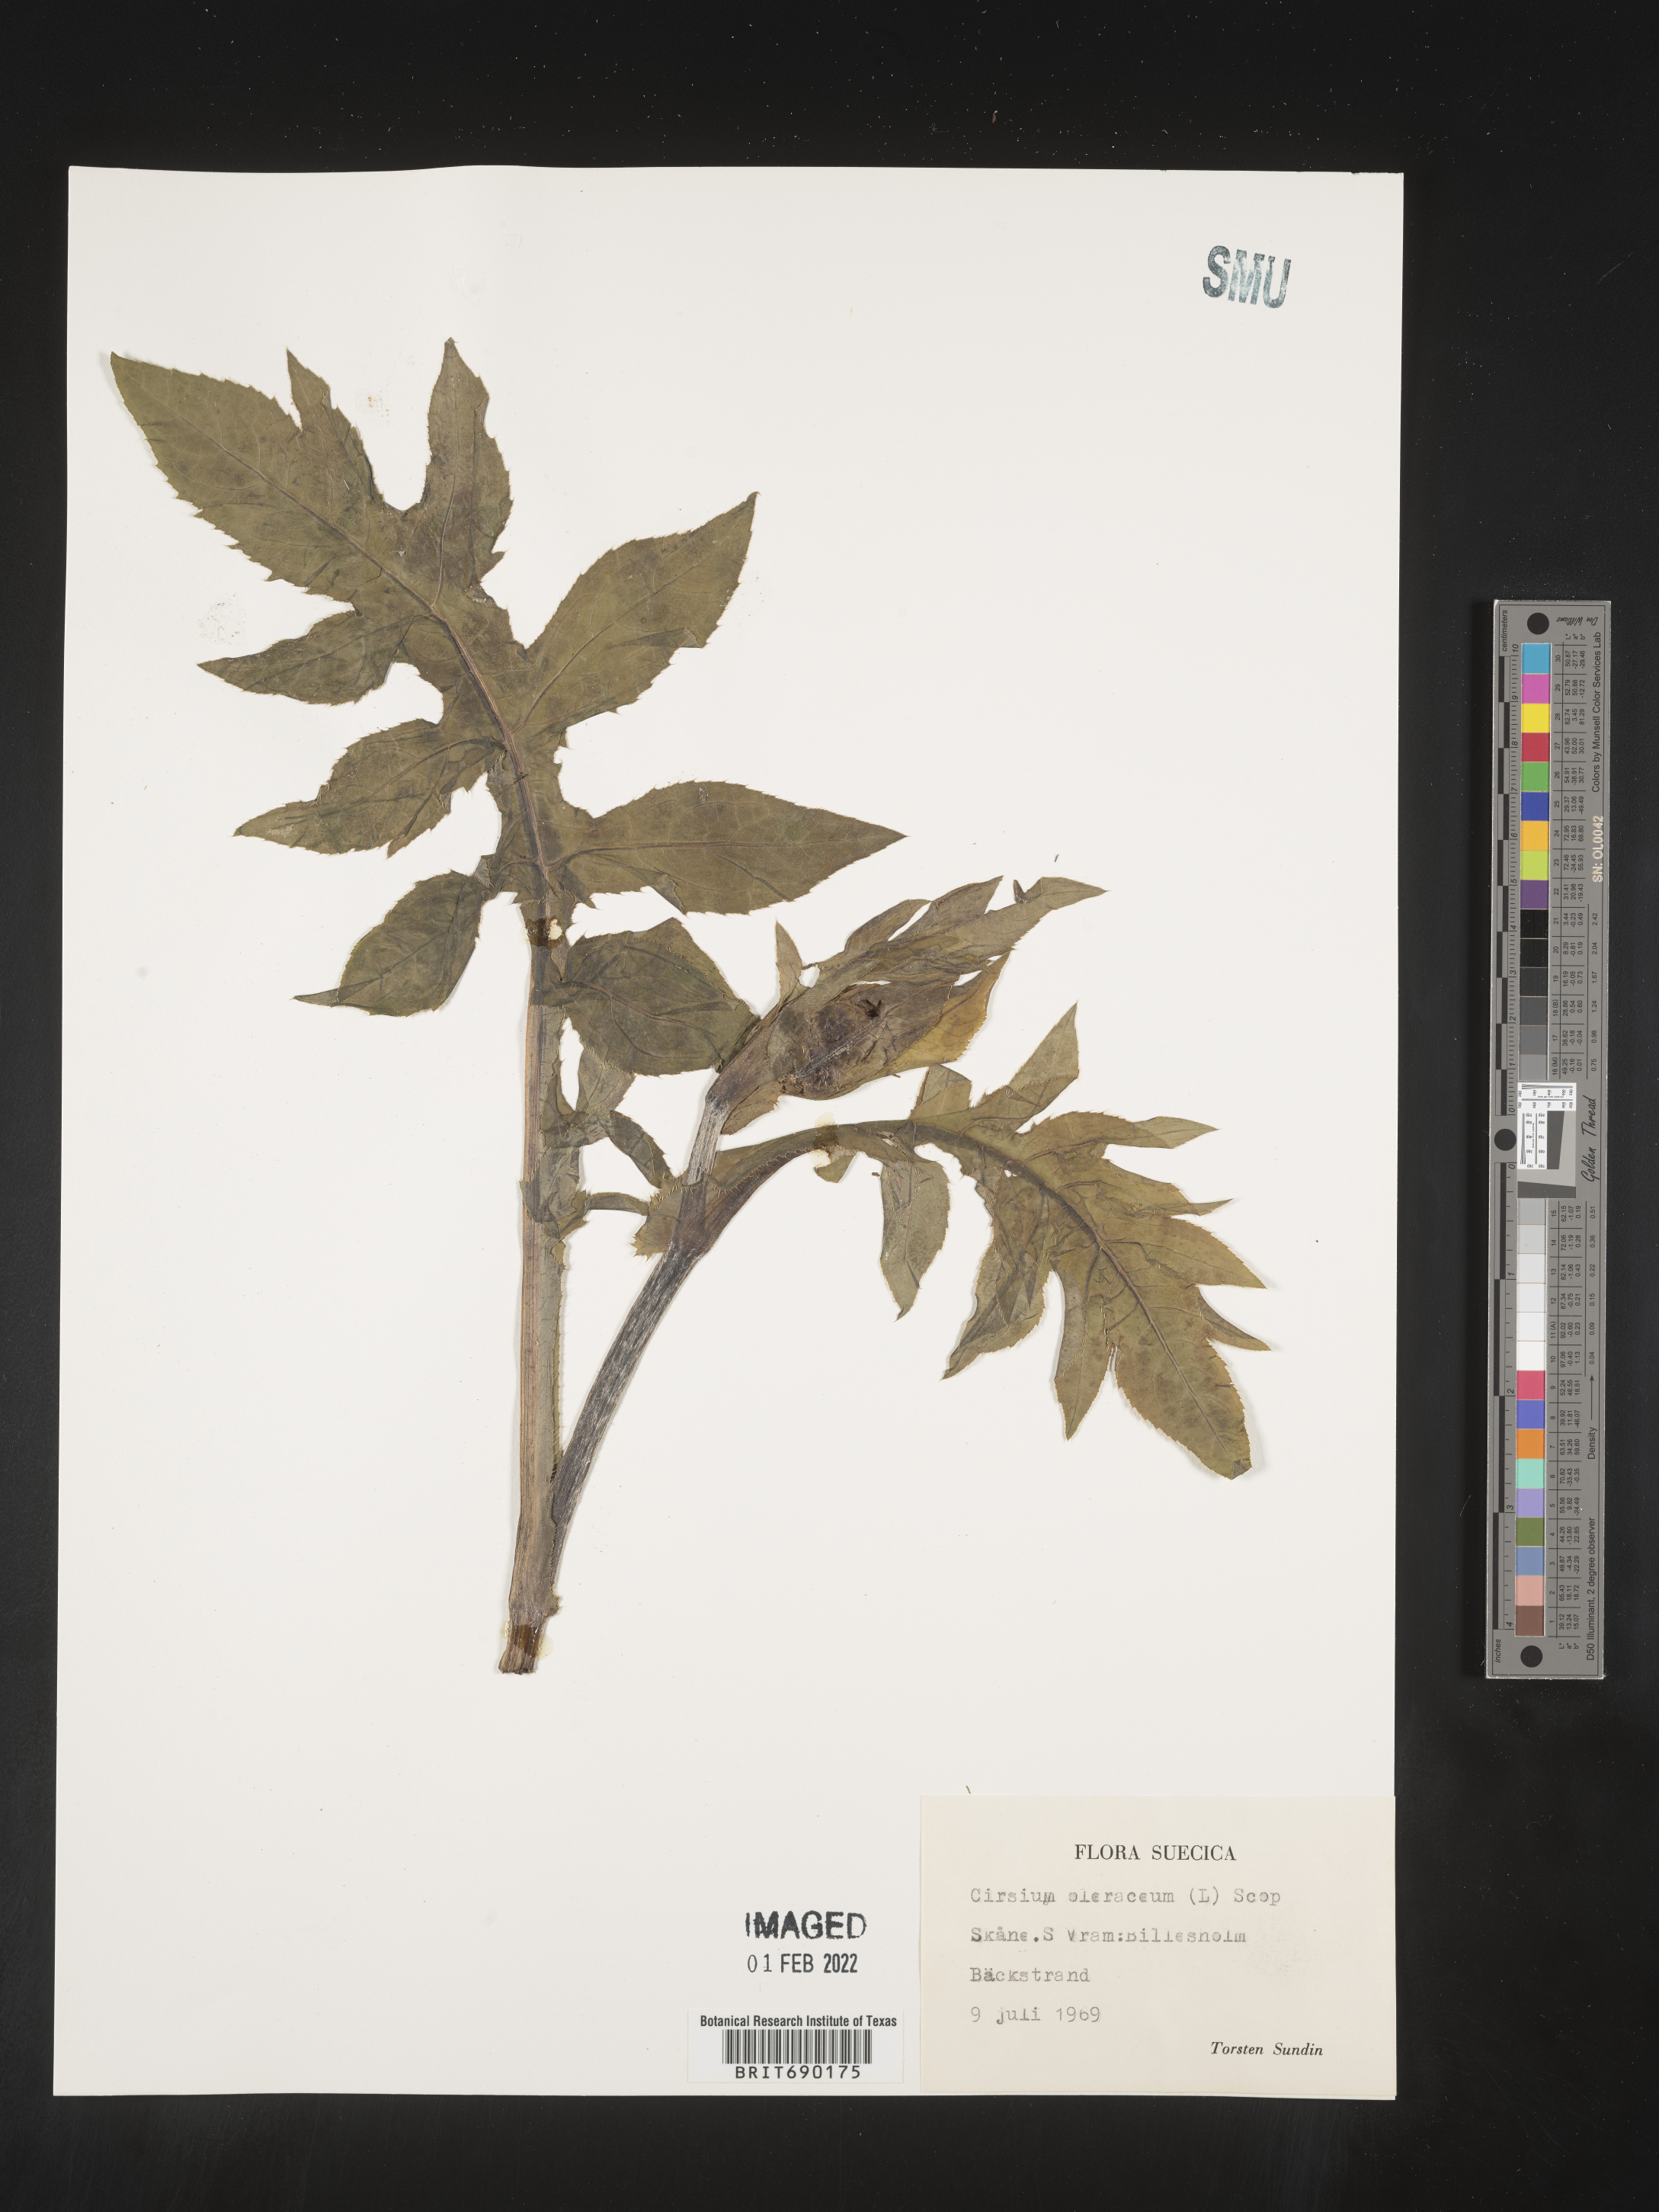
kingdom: Plantae
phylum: Tracheophyta
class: Magnoliopsida
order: Asterales
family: Asteraceae
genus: Cirsium
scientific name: Cirsium
